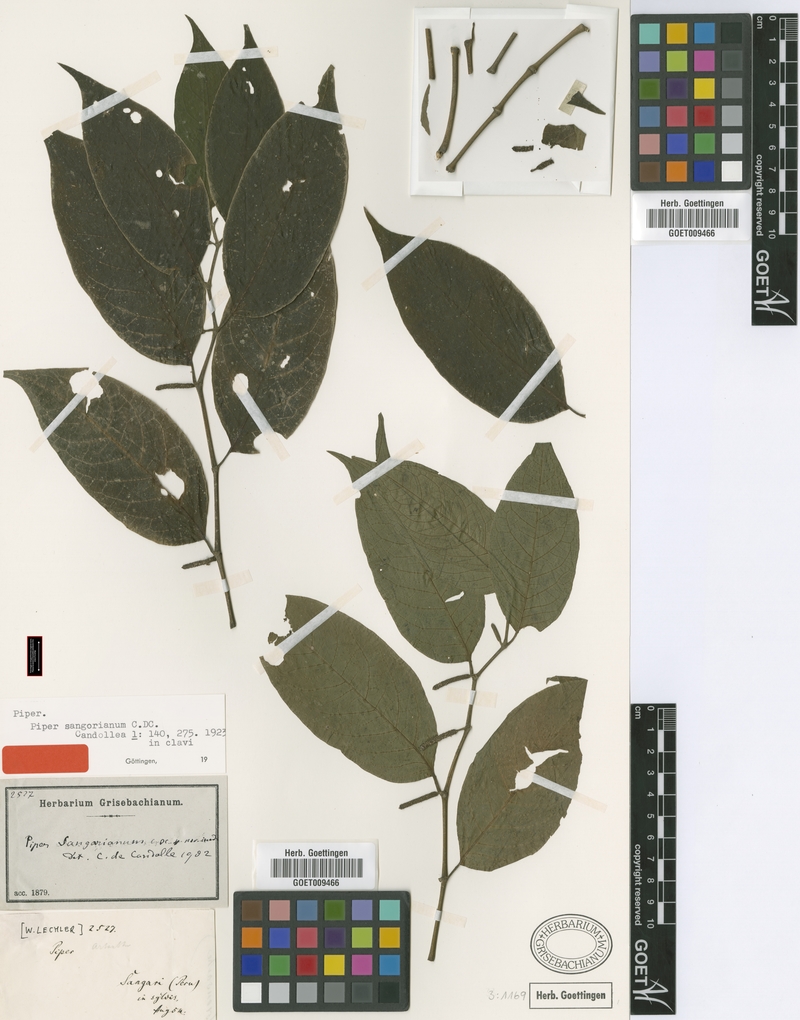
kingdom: Plantae
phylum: Tracheophyta
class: Magnoliopsida
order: Piperales
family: Piperaceae
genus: Piper
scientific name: Piper sangorianum
